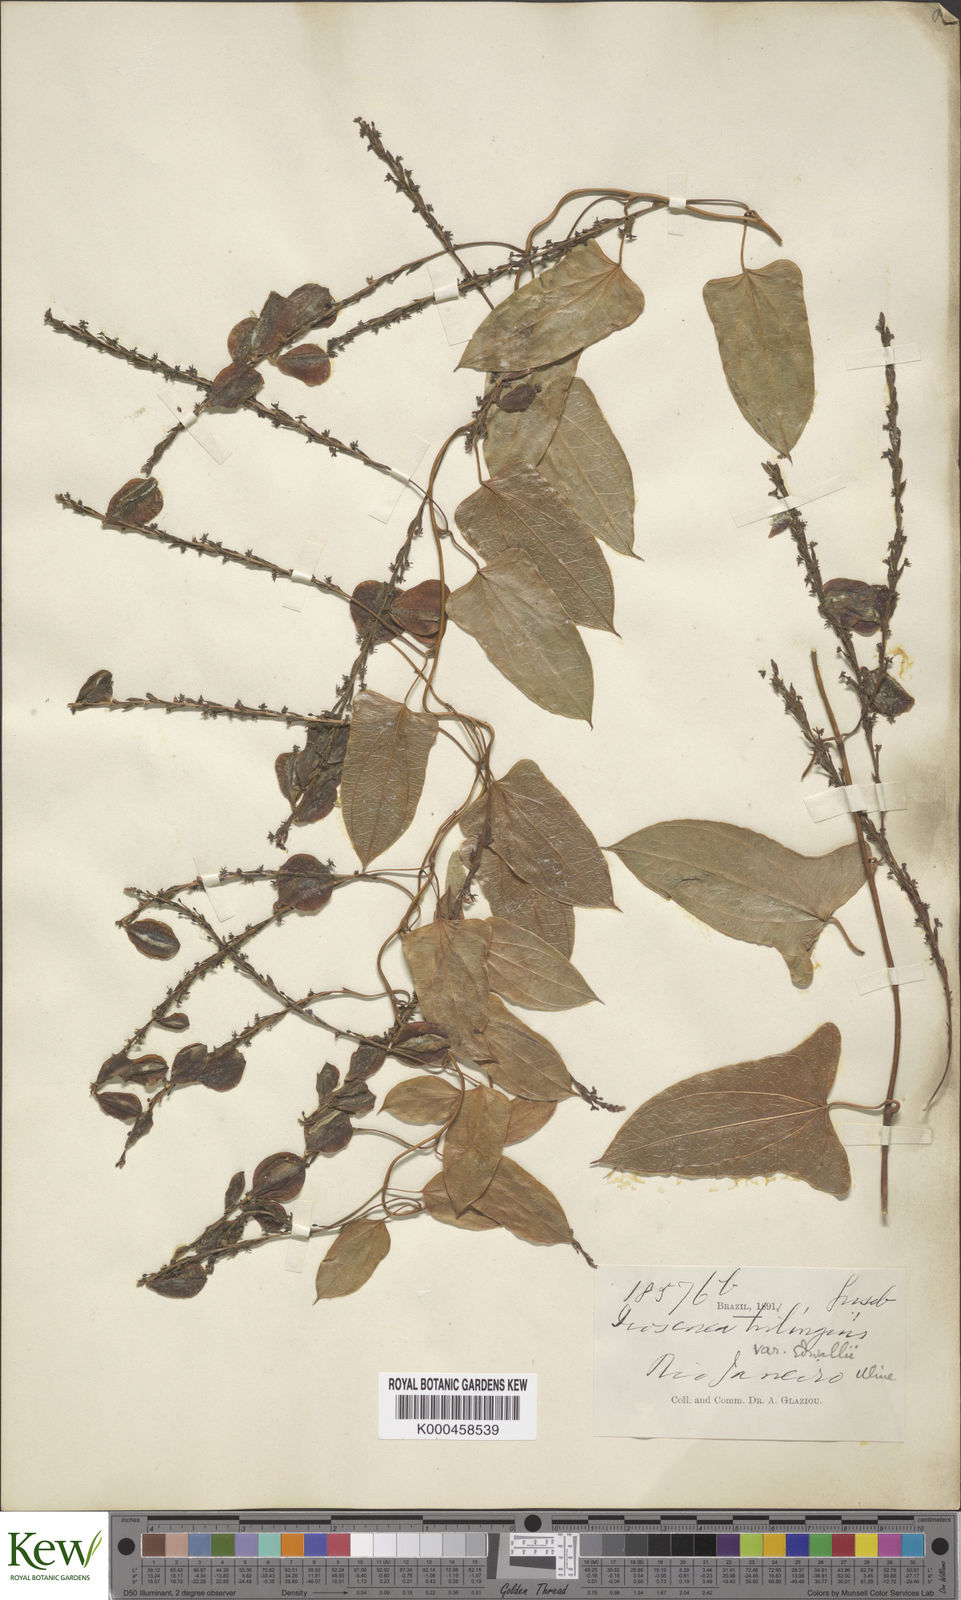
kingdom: Plantae
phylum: Tracheophyta
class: Liliopsida
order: Dioscoreales
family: Dioscoreaceae
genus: Dioscorea
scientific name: Dioscorea trilinguis
